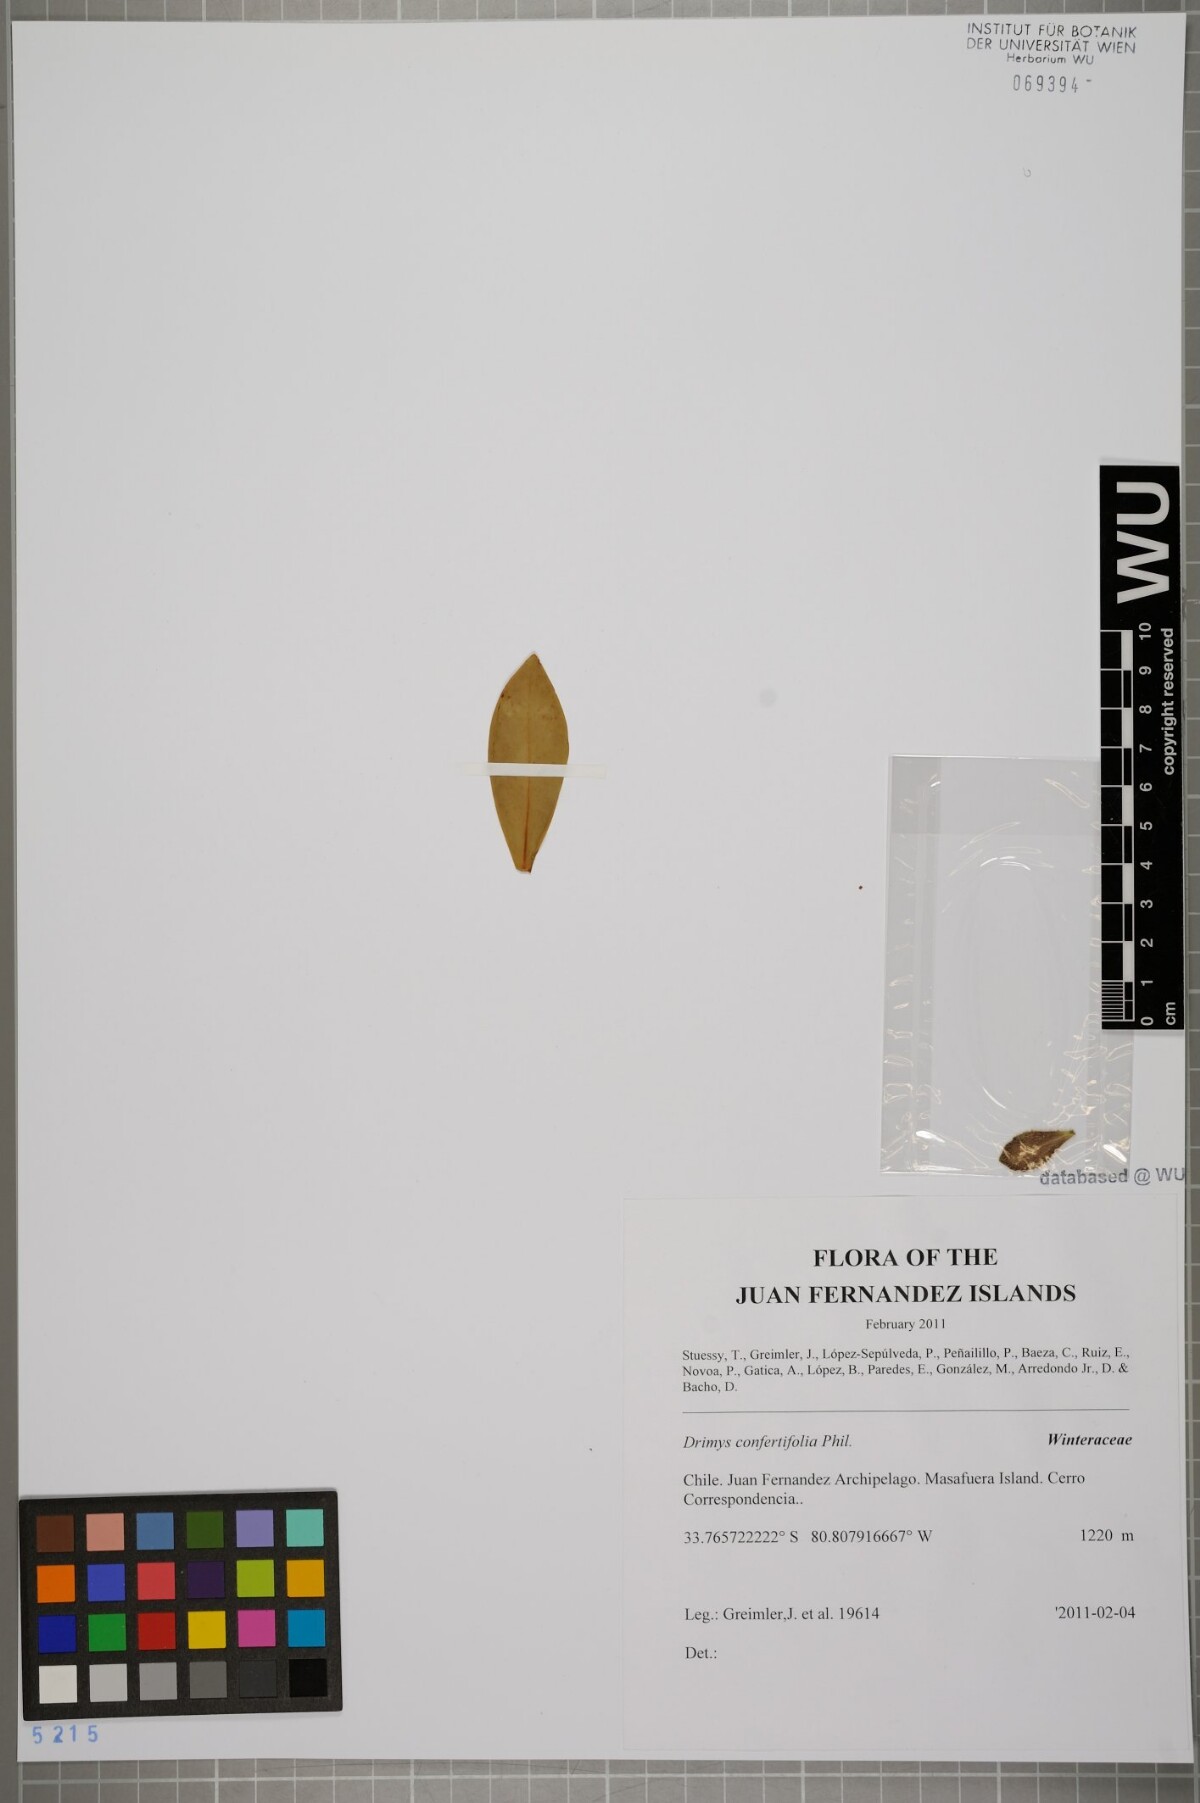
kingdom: Plantae
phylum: Tracheophyta
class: Magnoliopsida
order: Canellales
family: Winteraceae
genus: Drimys
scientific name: Drimys confertiflora
